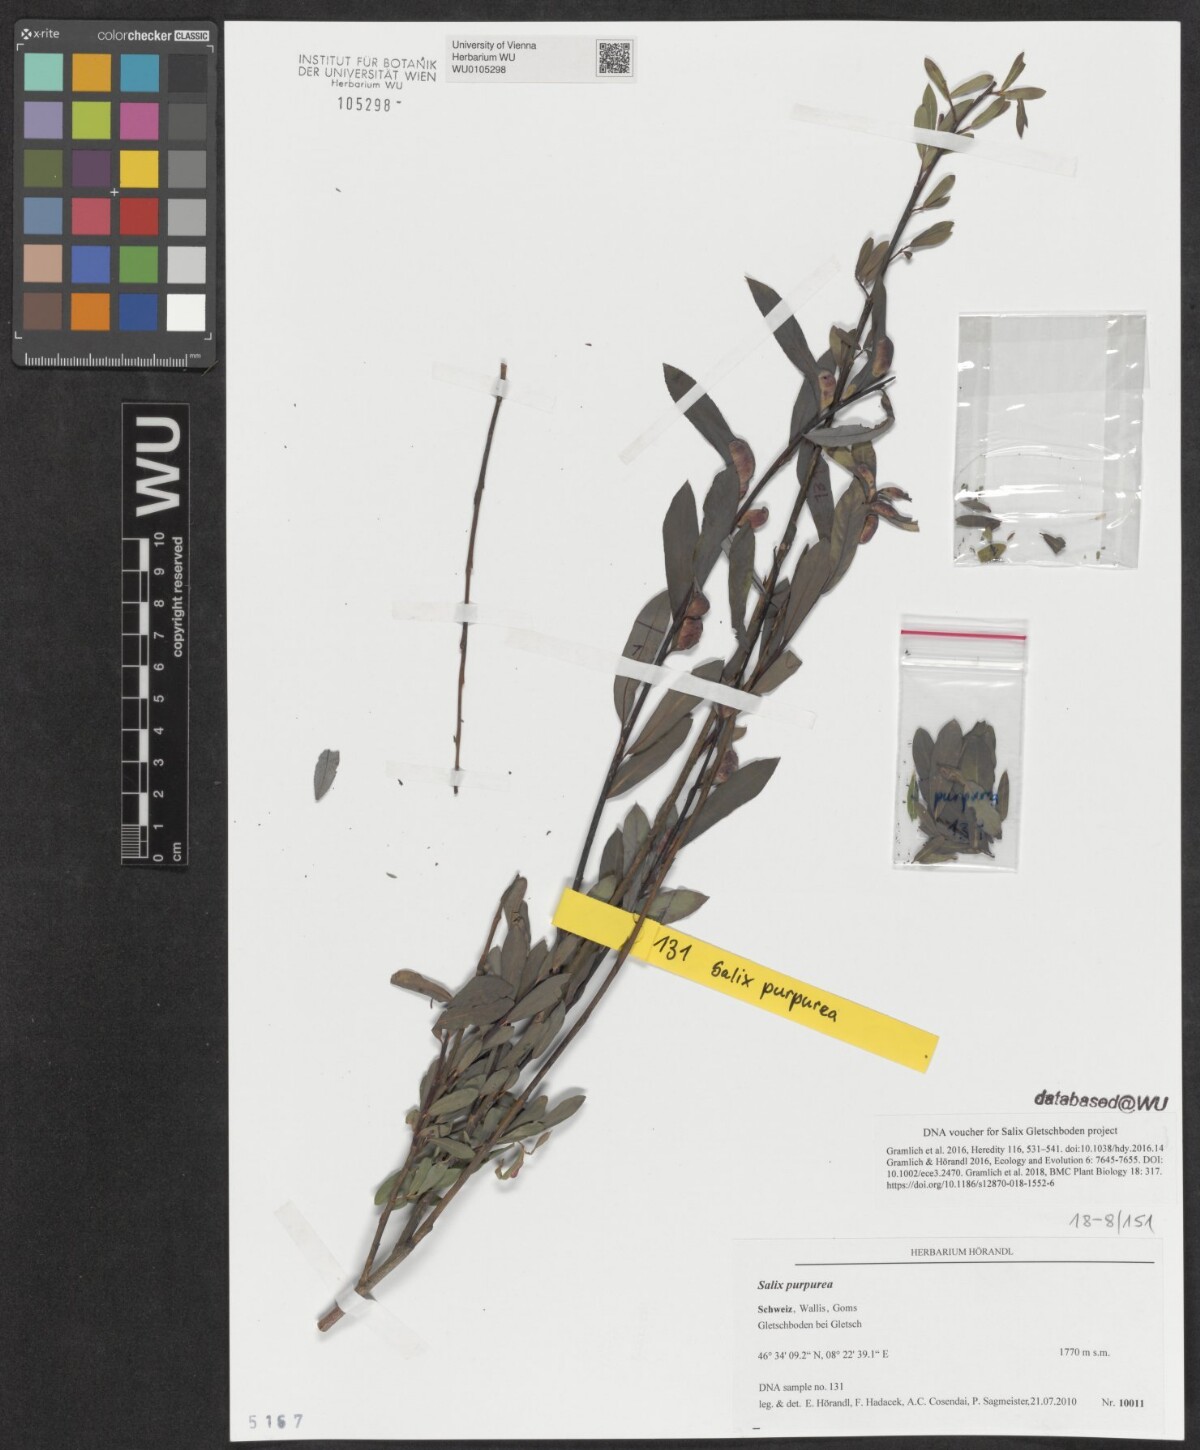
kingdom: Plantae
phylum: Tracheophyta
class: Magnoliopsida
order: Malpighiales
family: Salicaceae
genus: Salix
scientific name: Salix purpurea
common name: Purple willow
